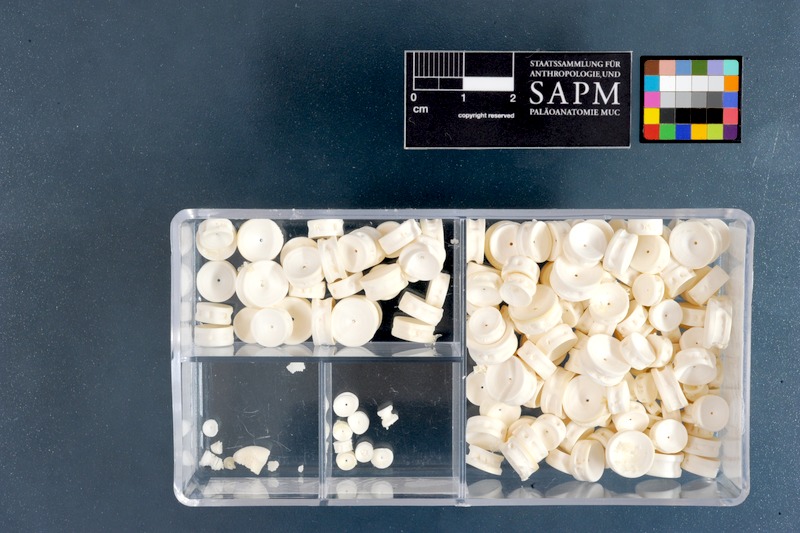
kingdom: Animalia
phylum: Chordata
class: Elasmobranchii
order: Rhinopristiformes
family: Rhinidae
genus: Rhynchobatus
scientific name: Rhynchobatus djiddensis
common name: Giant guitarfish
